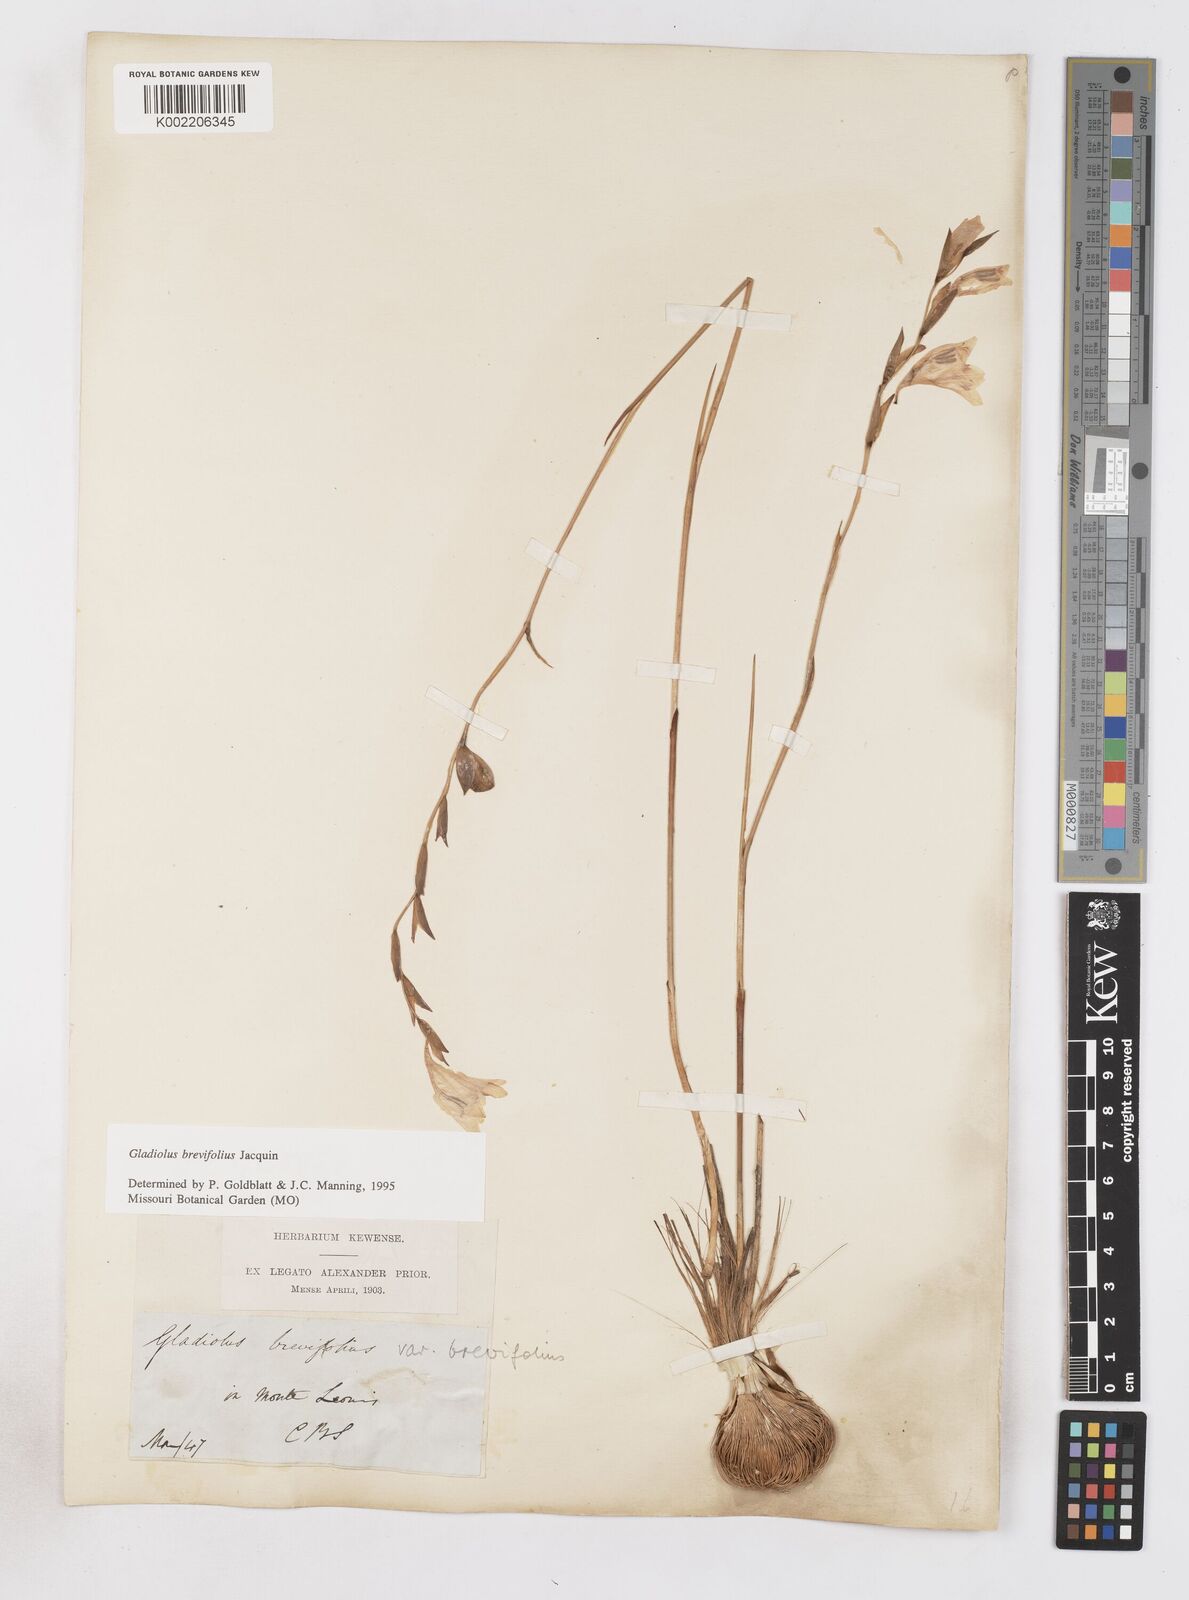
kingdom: Plantae
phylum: Tracheophyta
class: Liliopsida
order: Asparagales
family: Iridaceae
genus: Gladiolus
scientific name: Gladiolus brevifolius
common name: March pypie
